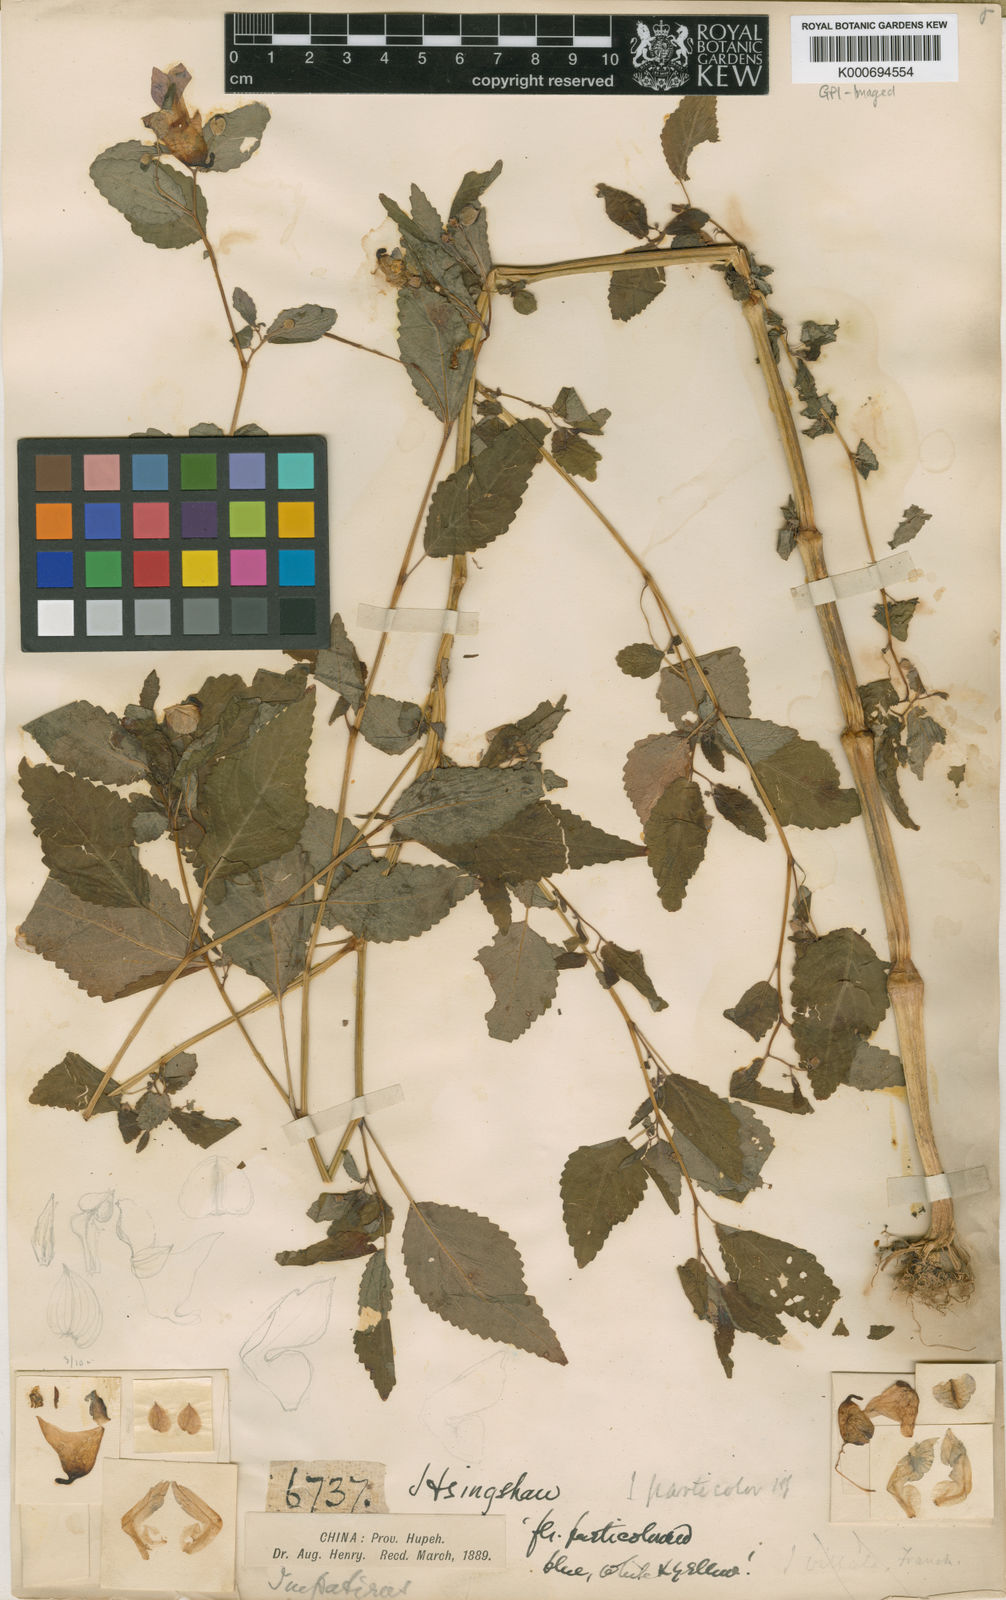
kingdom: Plantae
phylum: Tracheophyta
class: Magnoliopsida
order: Ericales
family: Balsaminaceae
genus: Impatiens
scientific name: Impatiens
